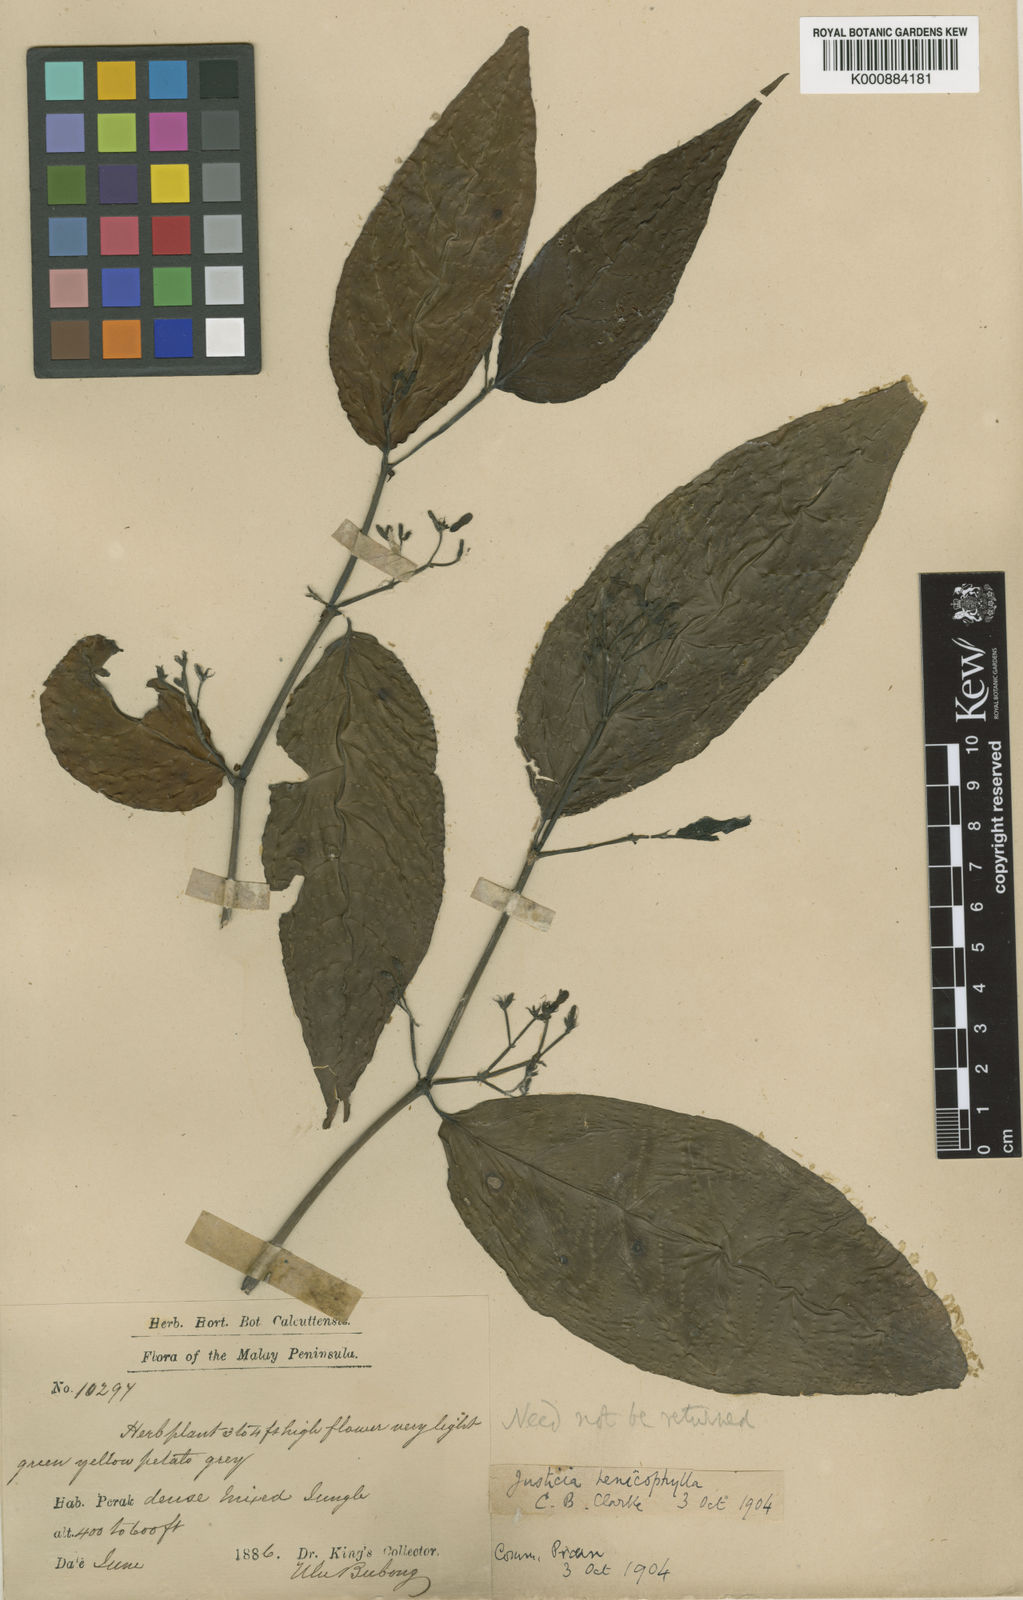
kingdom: Plantae
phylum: Tracheophyta
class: Magnoliopsida
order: Lamiales
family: Acanthaceae
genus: Justicia
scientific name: Justicia alternifolia
